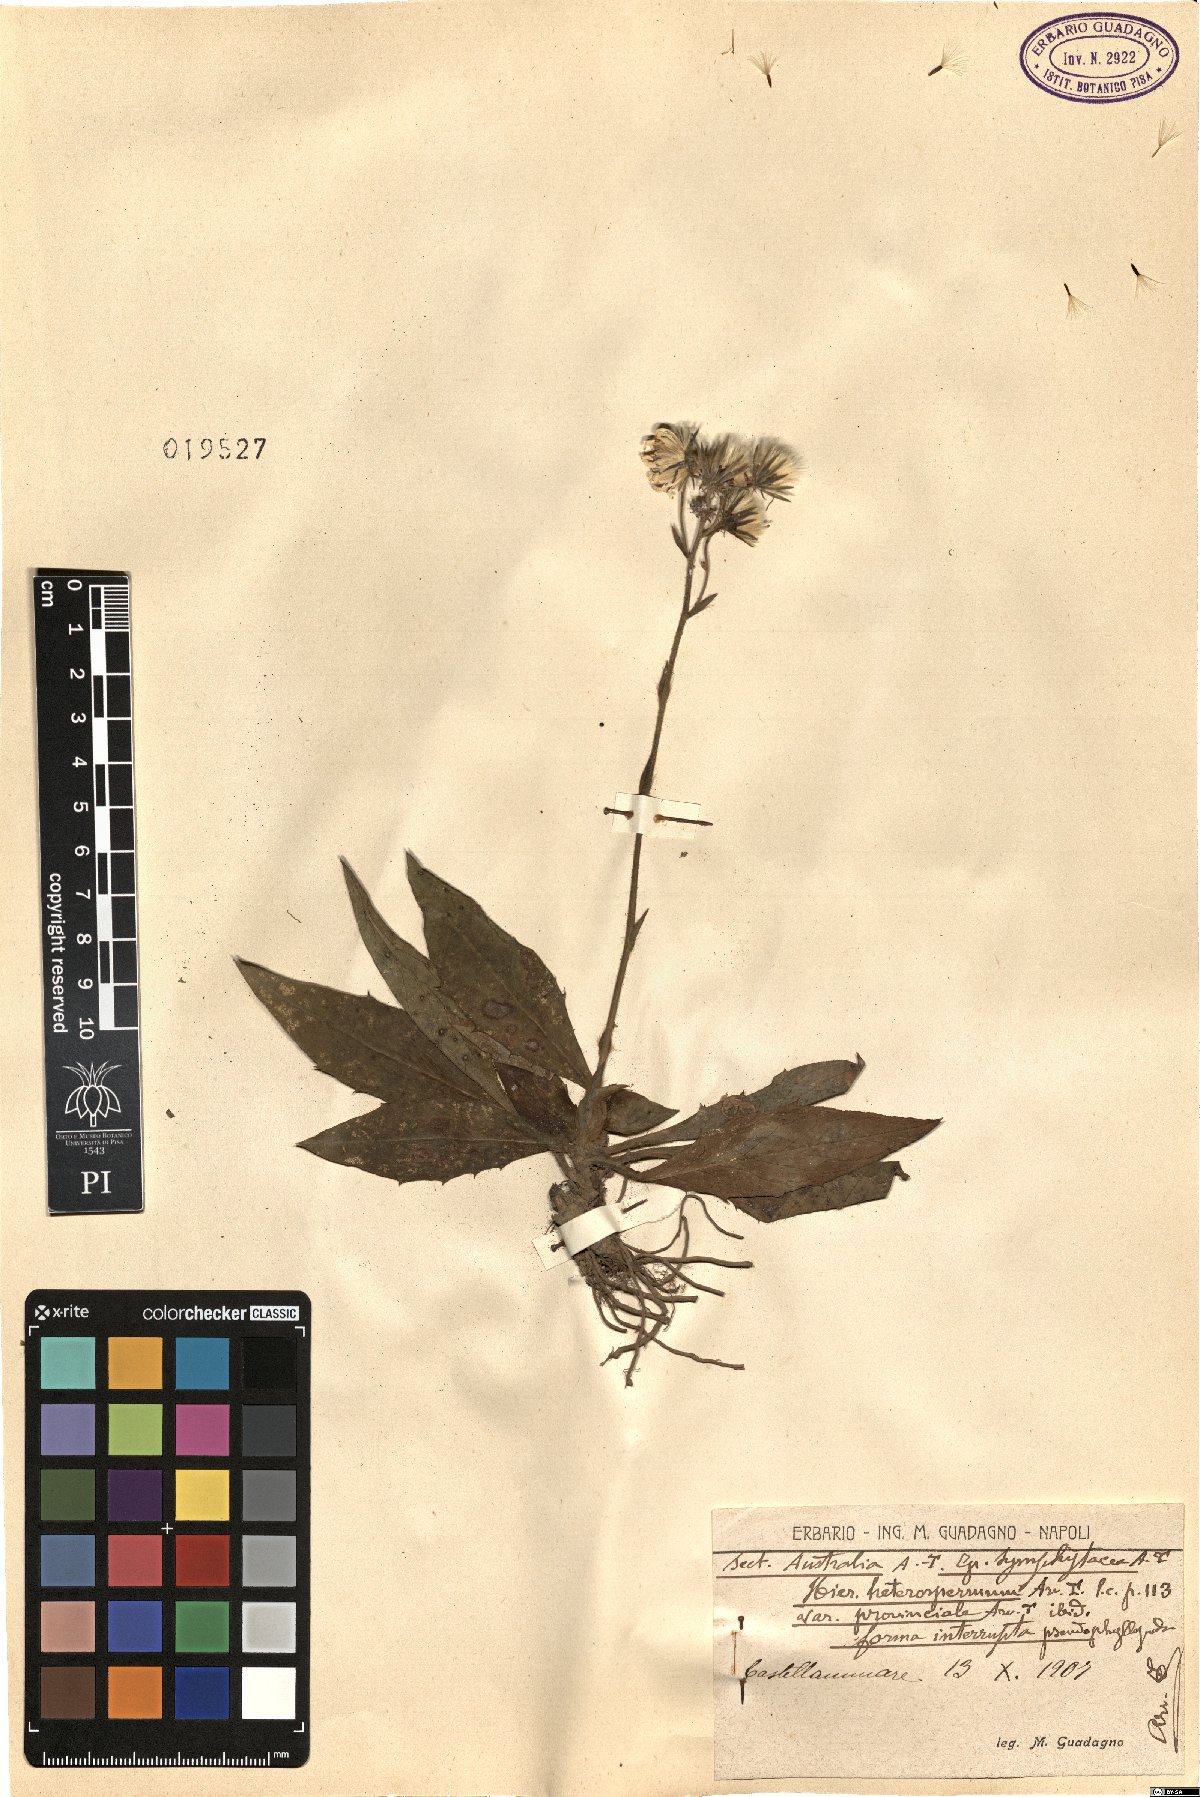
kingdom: Plantae
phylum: Tracheophyta
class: Magnoliopsida
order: Asterales
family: Asteraceae
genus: Hieracium
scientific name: Hieracium racemosum
